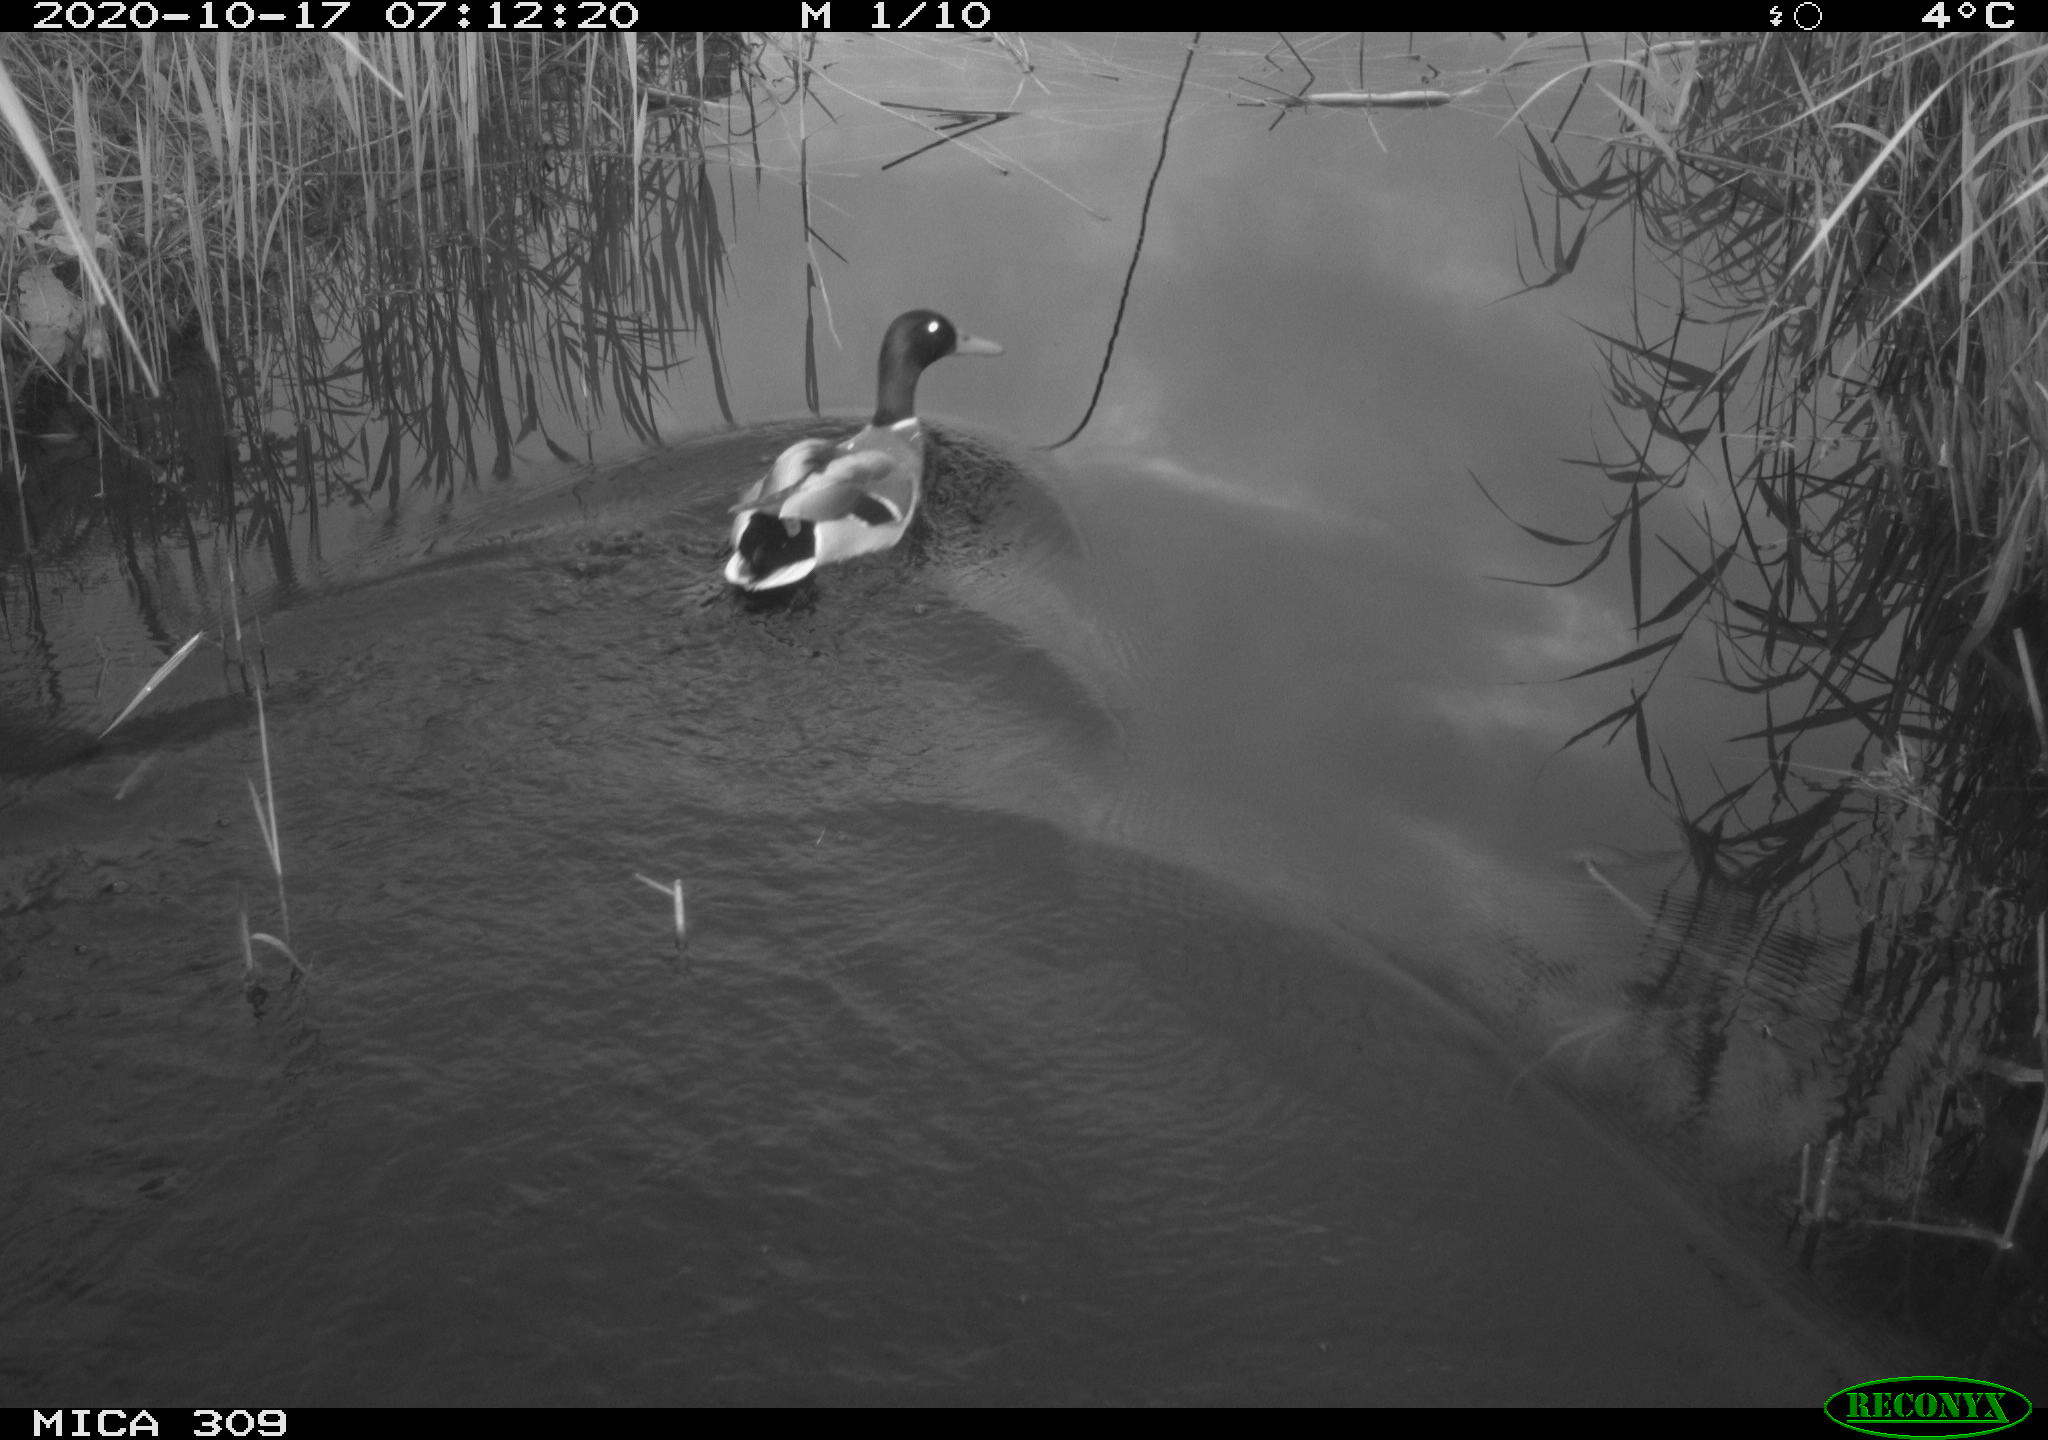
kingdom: Animalia
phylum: Chordata
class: Aves
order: Anseriformes
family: Anatidae
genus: Anas
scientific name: Anas platyrhynchos
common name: Mallard
